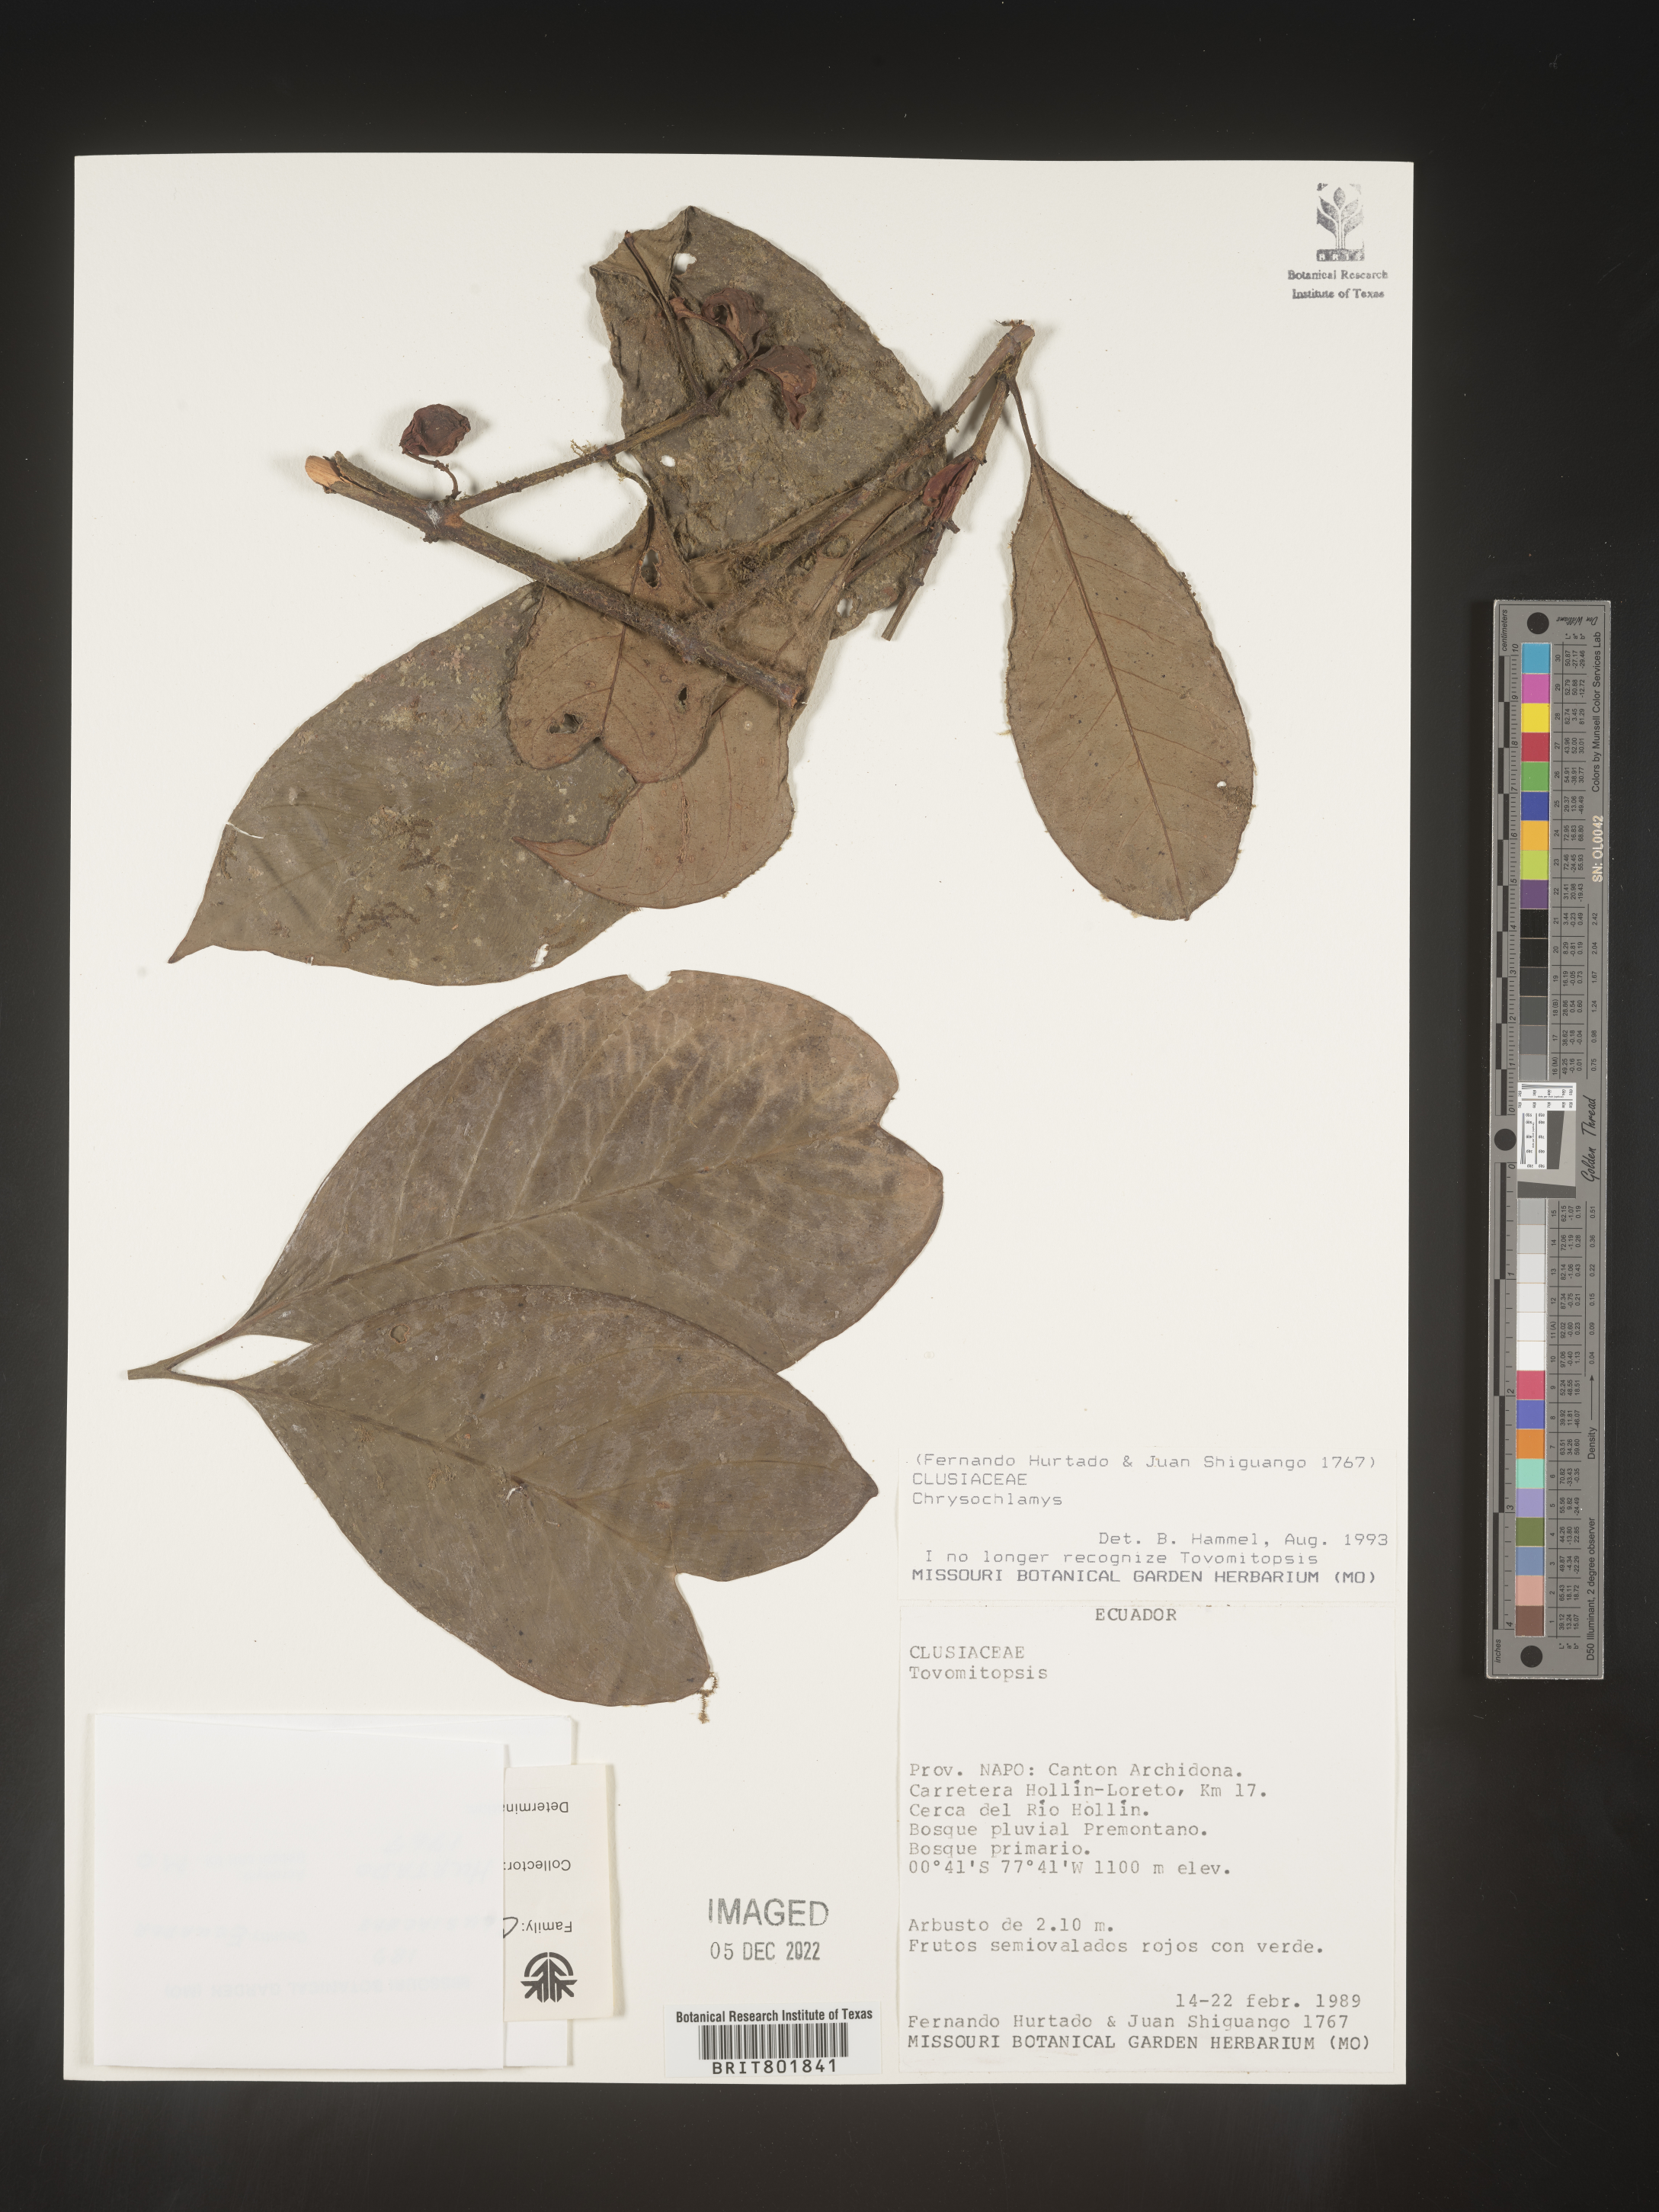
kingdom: Plantae
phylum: Tracheophyta
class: Magnoliopsida
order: Malpighiales
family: Clusiaceae
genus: Chrysochlamys
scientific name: Chrysochlamys
